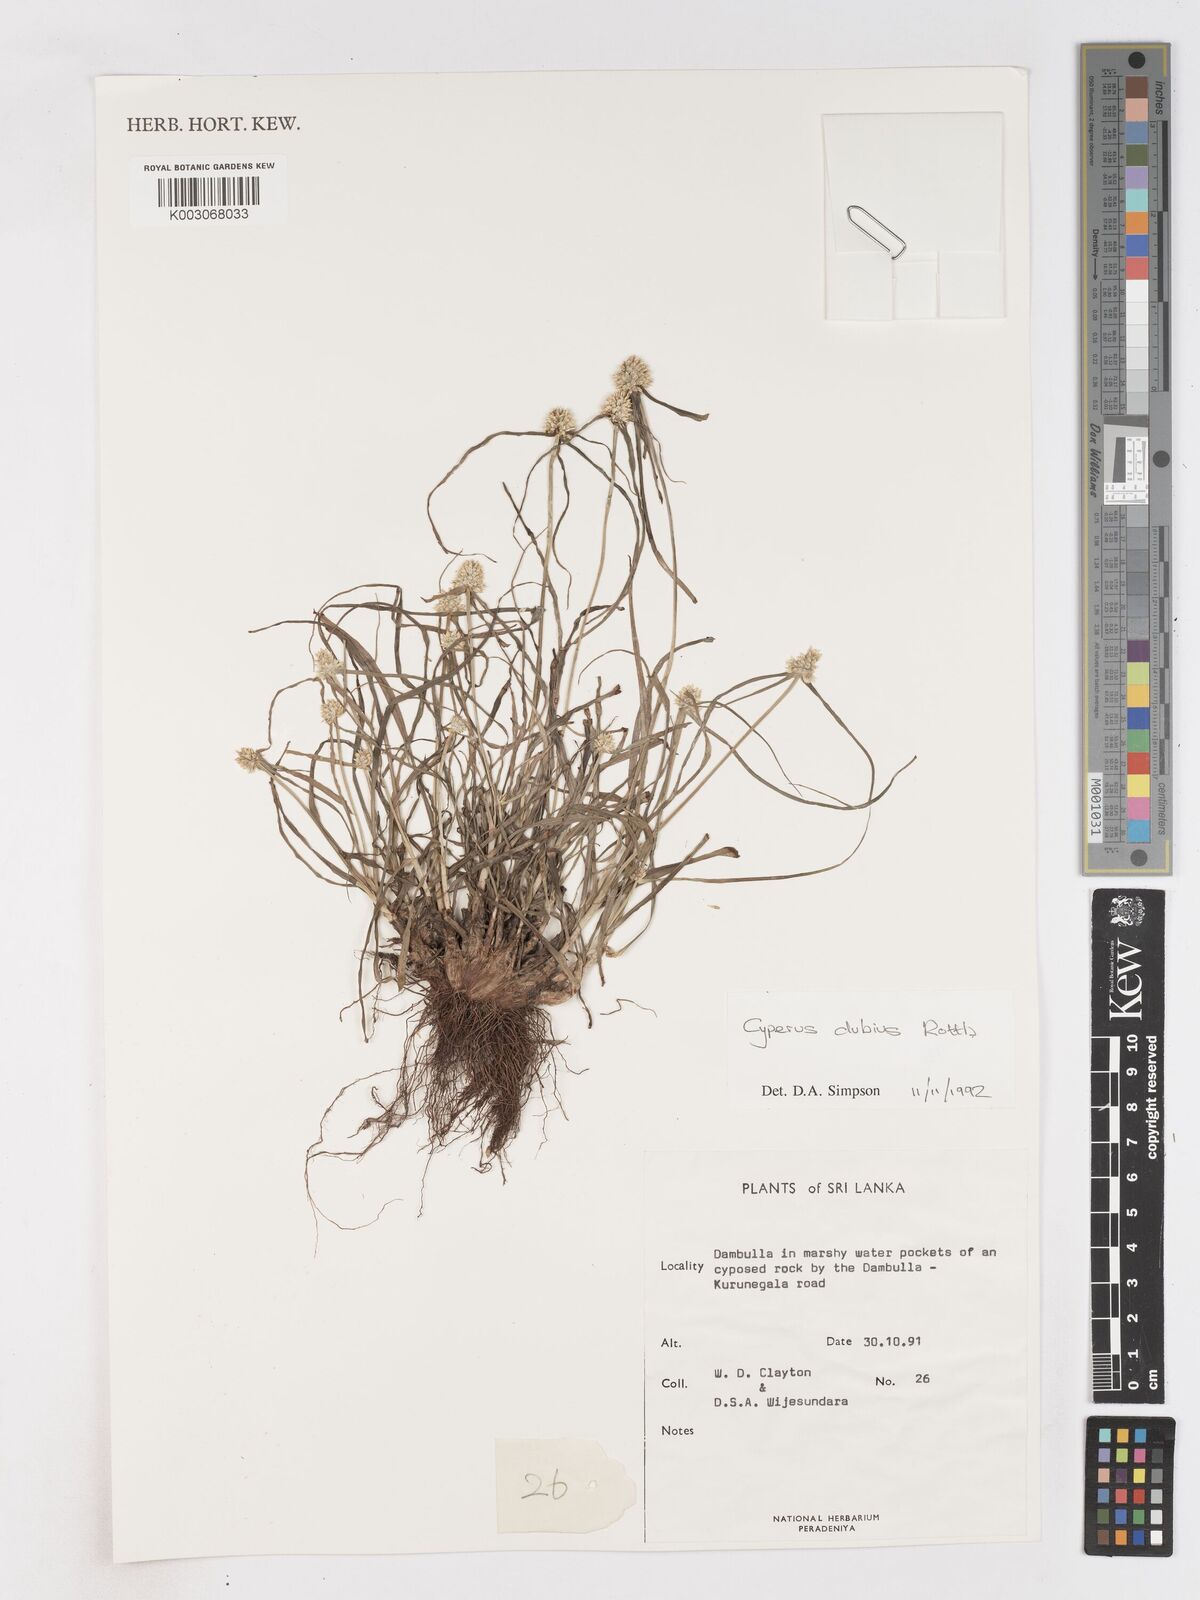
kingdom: Plantae
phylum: Tracheophyta
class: Liliopsida
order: Poales
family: Cyperaceae
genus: Cyperus
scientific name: Cyperus dubius
